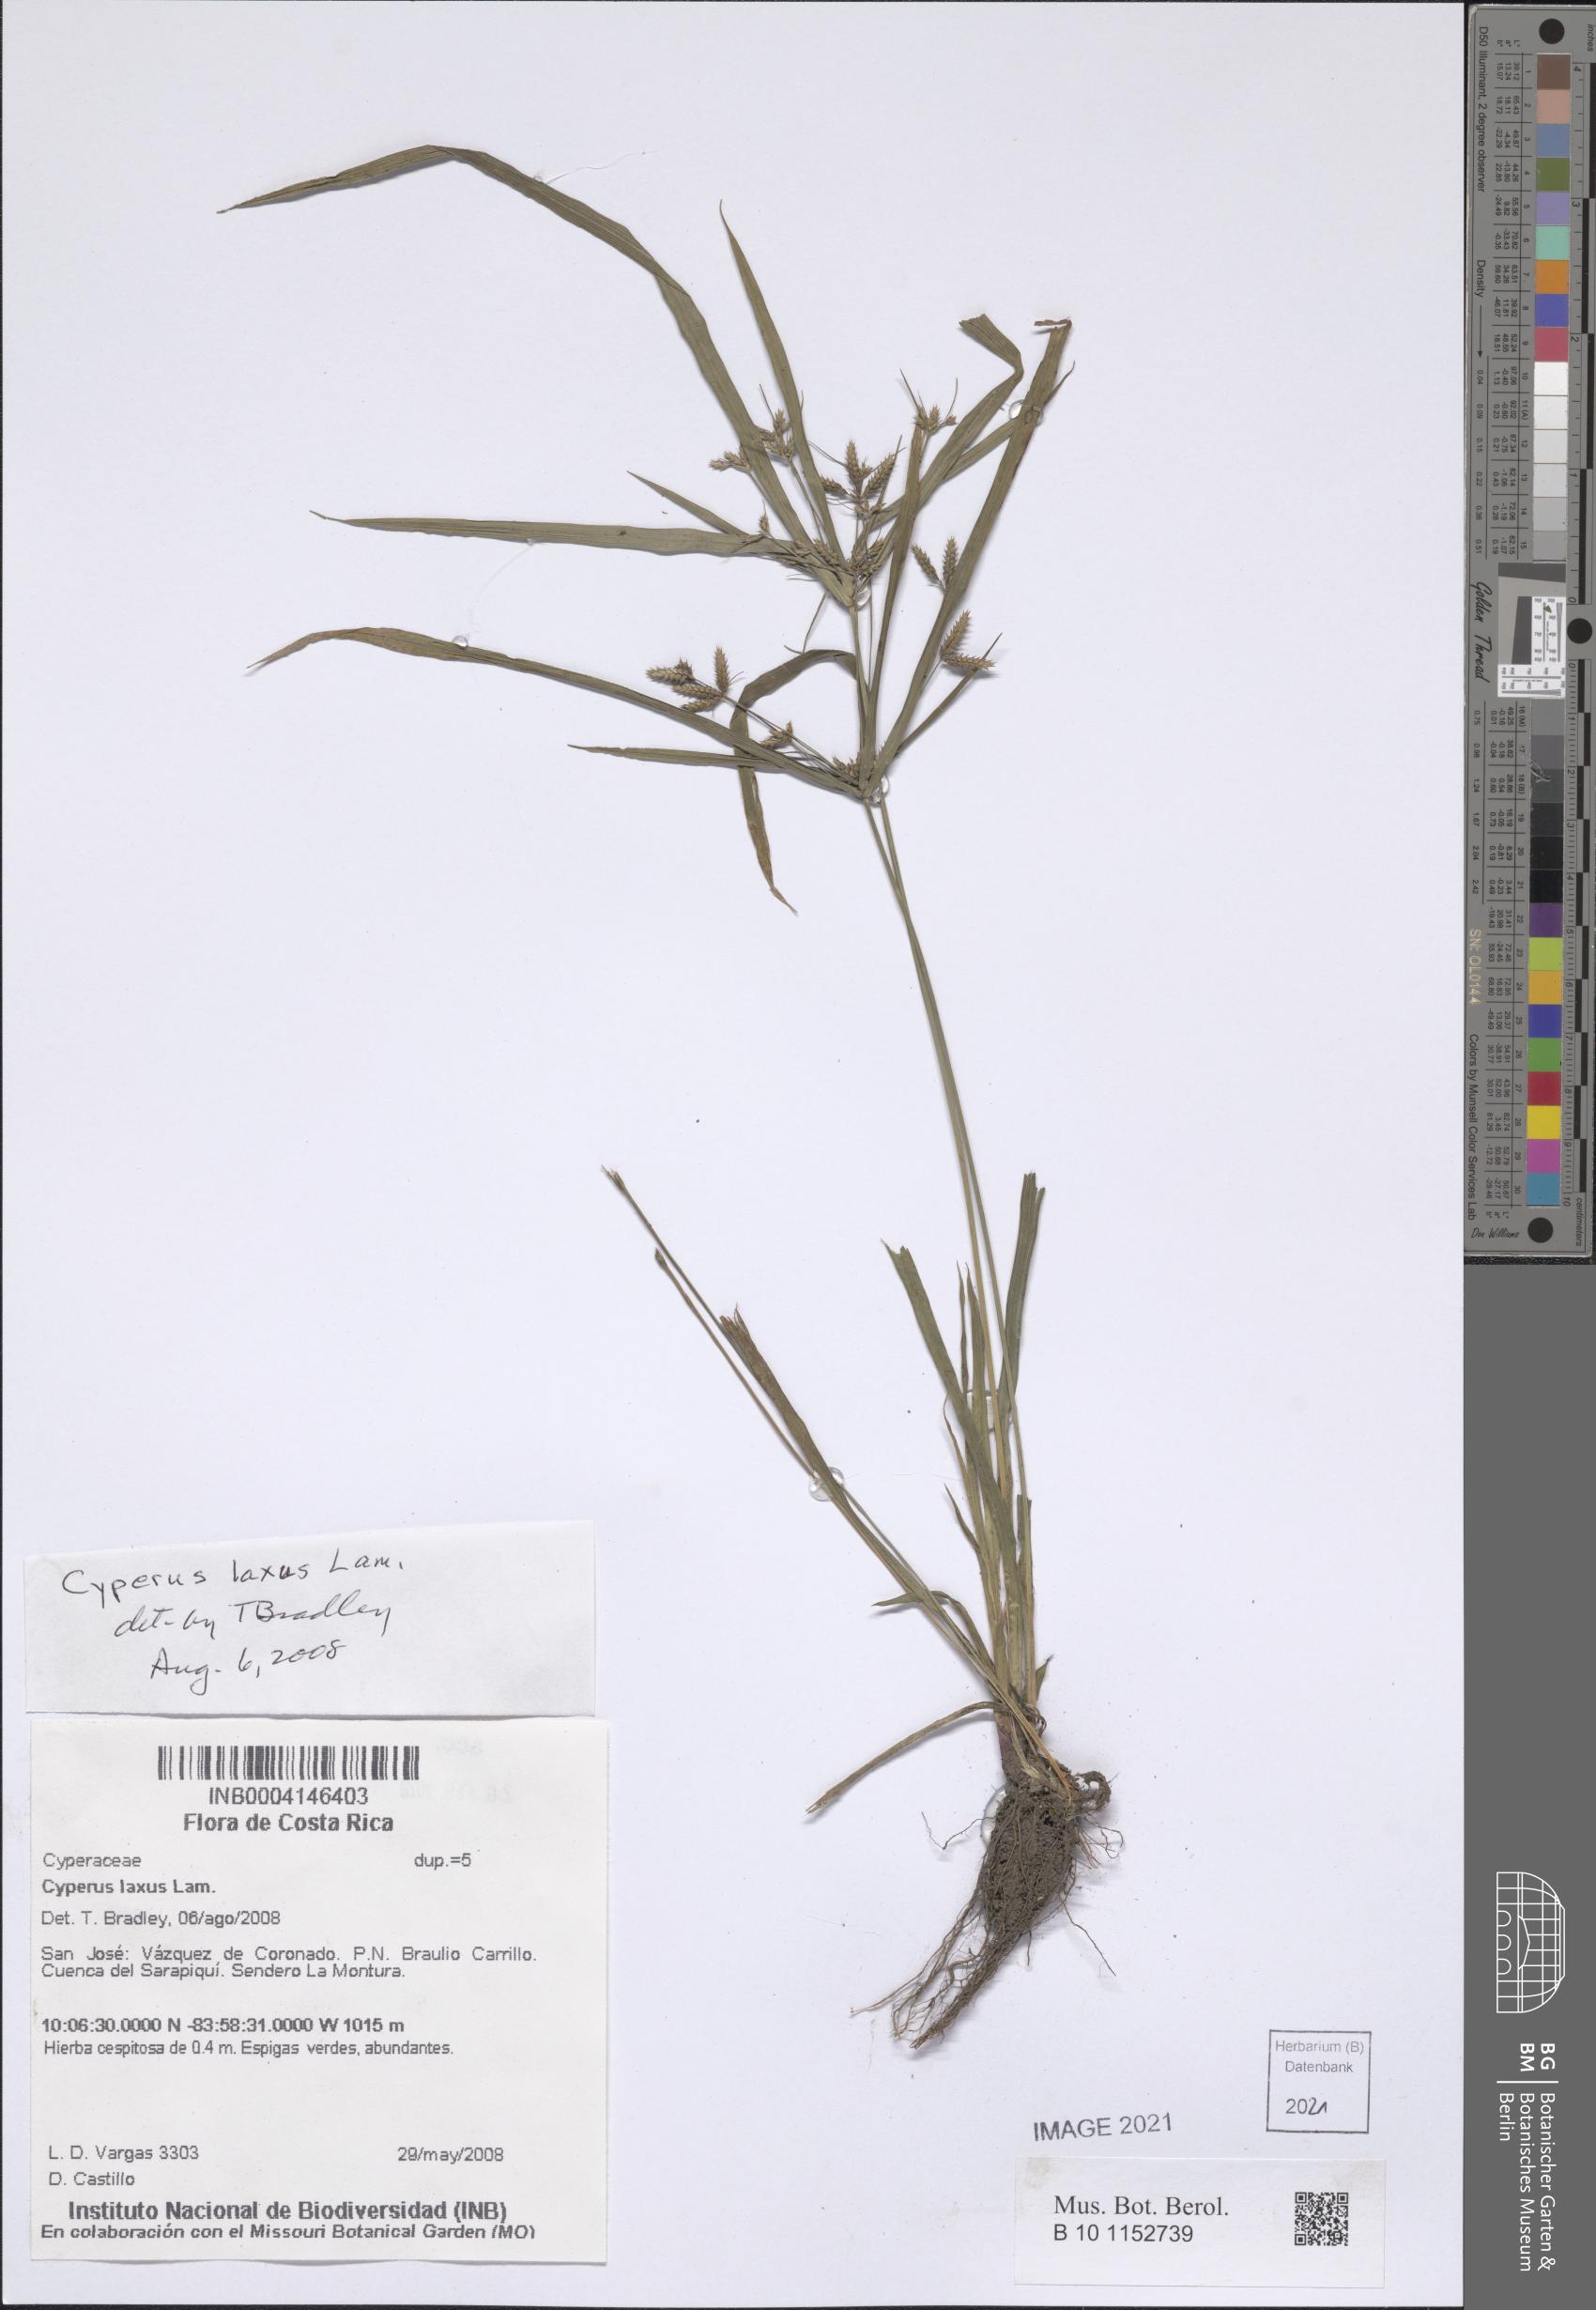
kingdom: Plantae
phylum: Tracheophyta
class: Liliopsida
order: Poales
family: Cyperaceae
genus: Cyperus
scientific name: Cyperus laxus
